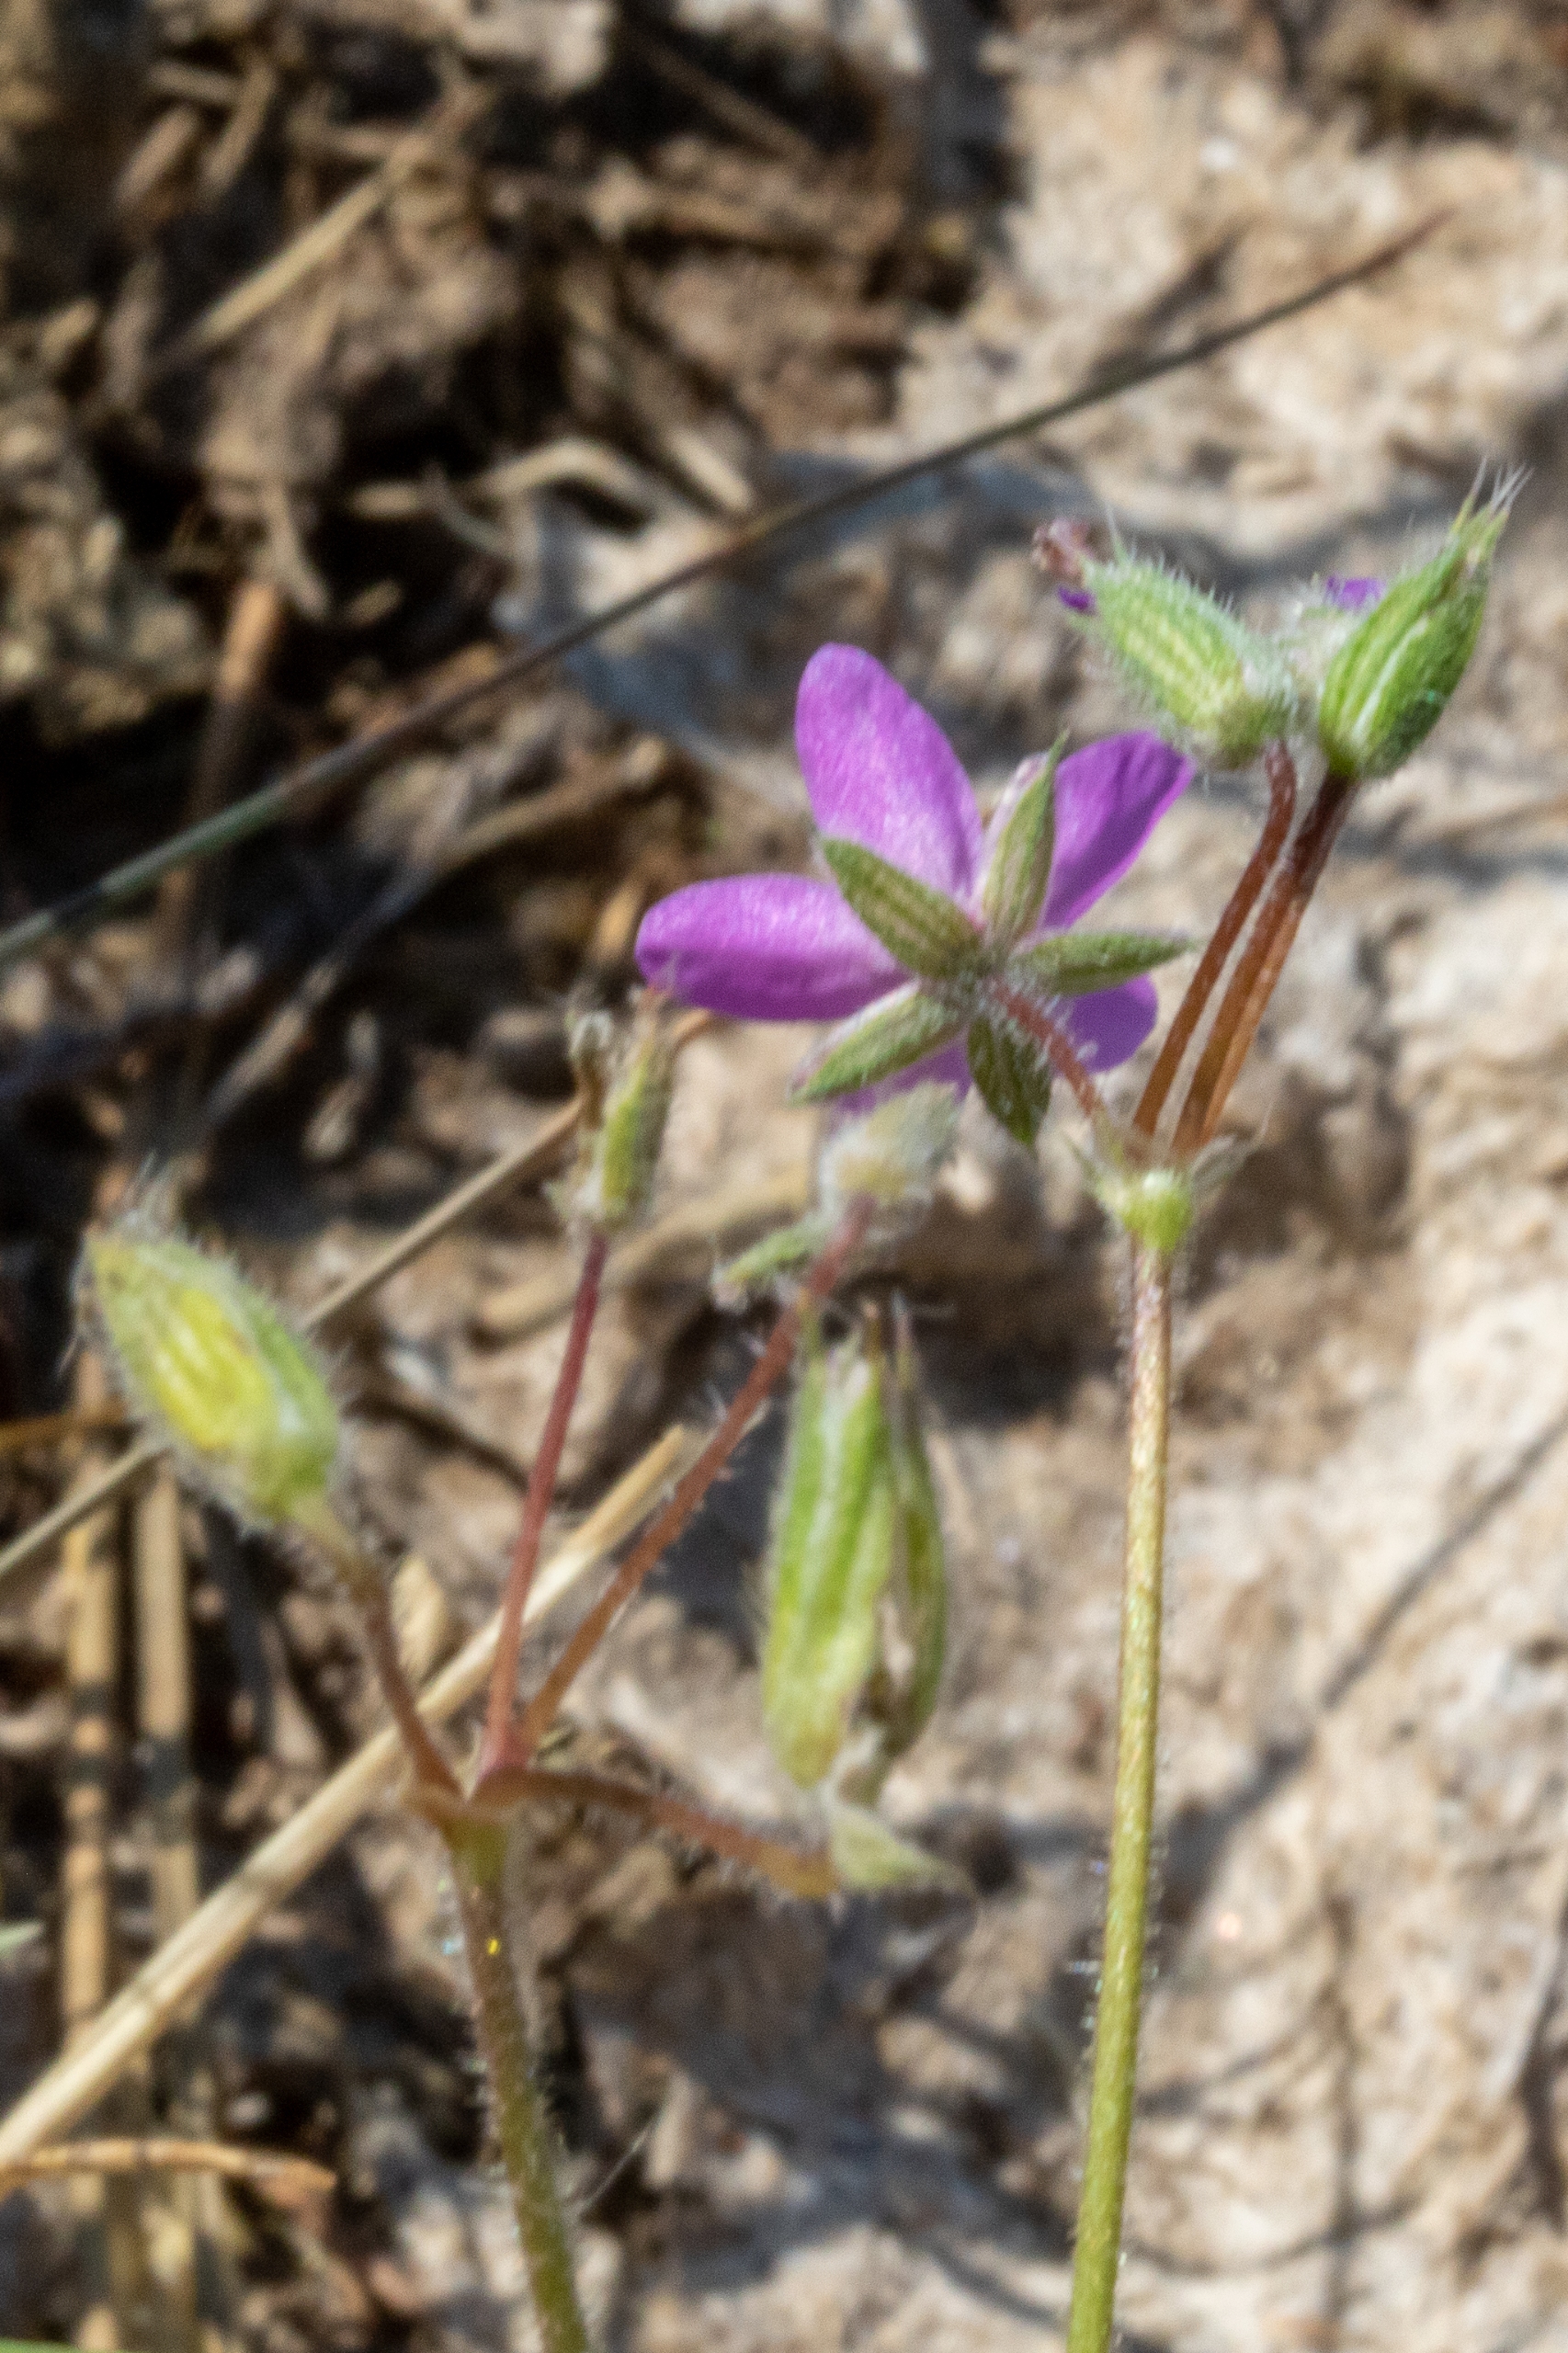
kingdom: Plantae
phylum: Tracheophyta
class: Magnoliopsida
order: Geraniales
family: Geraniaceae
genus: Erodium
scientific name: Erodium cicutarium
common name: Hejrenæb
